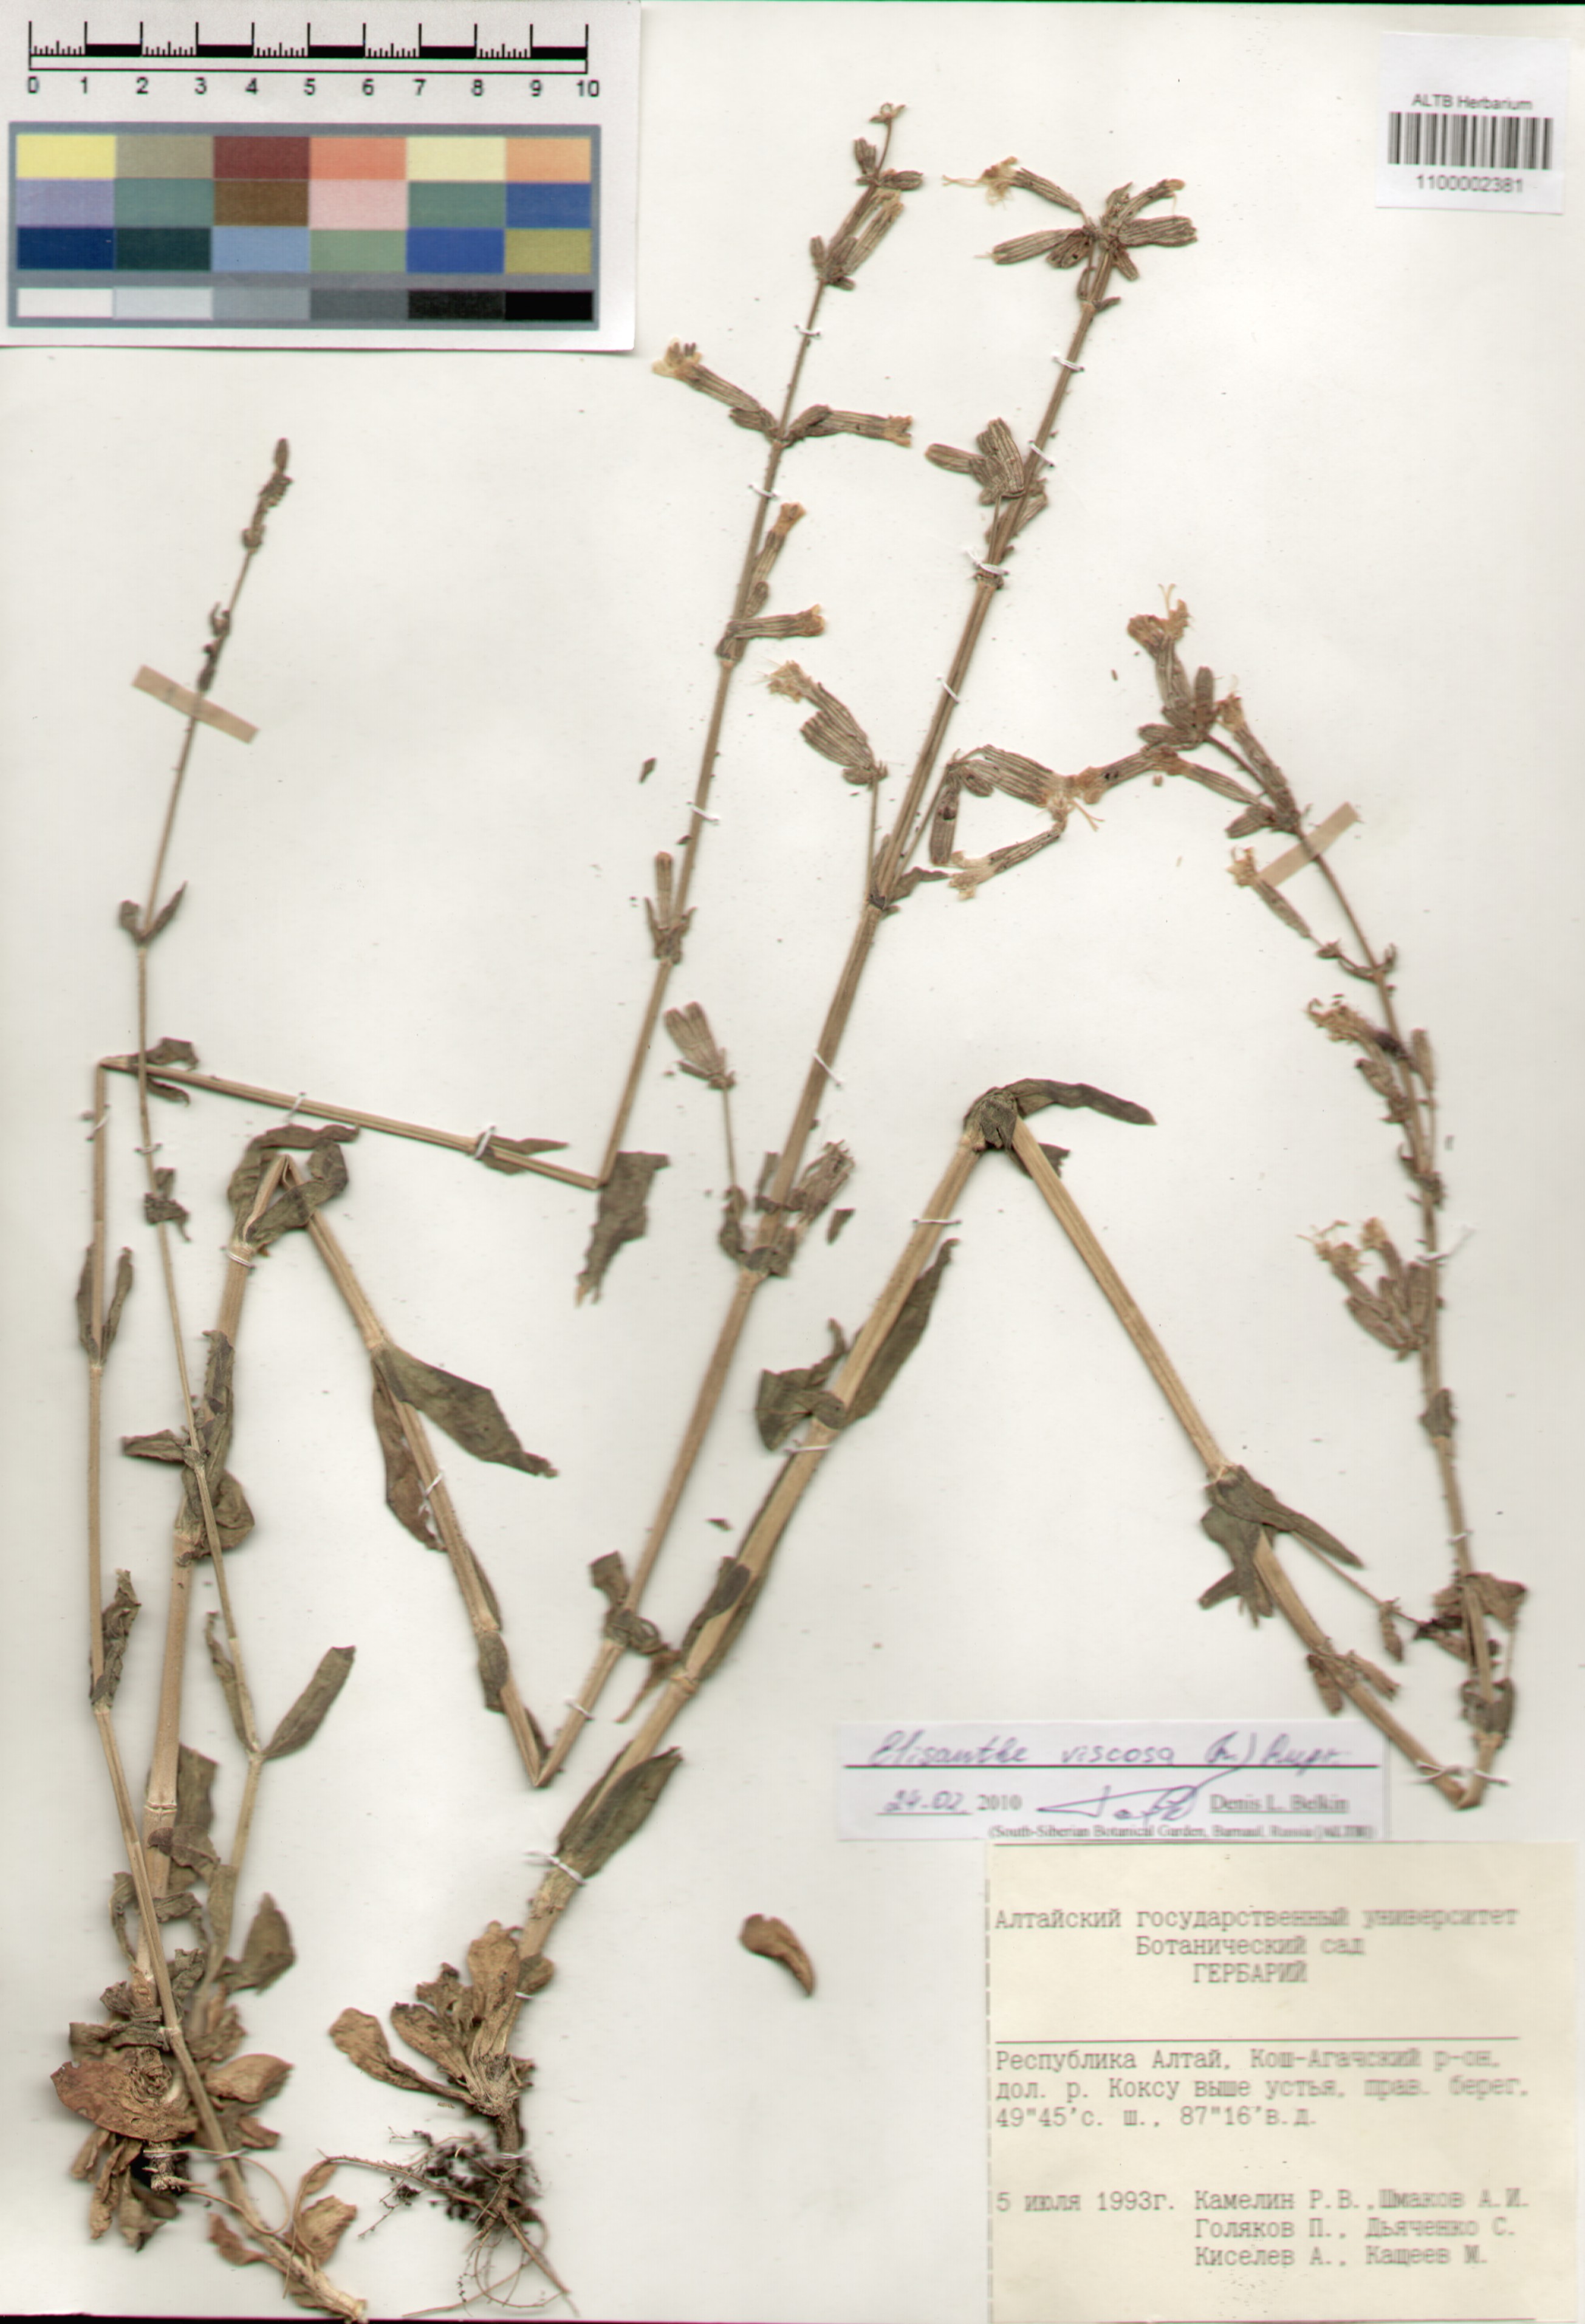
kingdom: Plantae
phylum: Tracheophyta
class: Magnoliopsida
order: Caryophyllales
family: Caryophyllaceae
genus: Silene
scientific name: Silene viscosa
